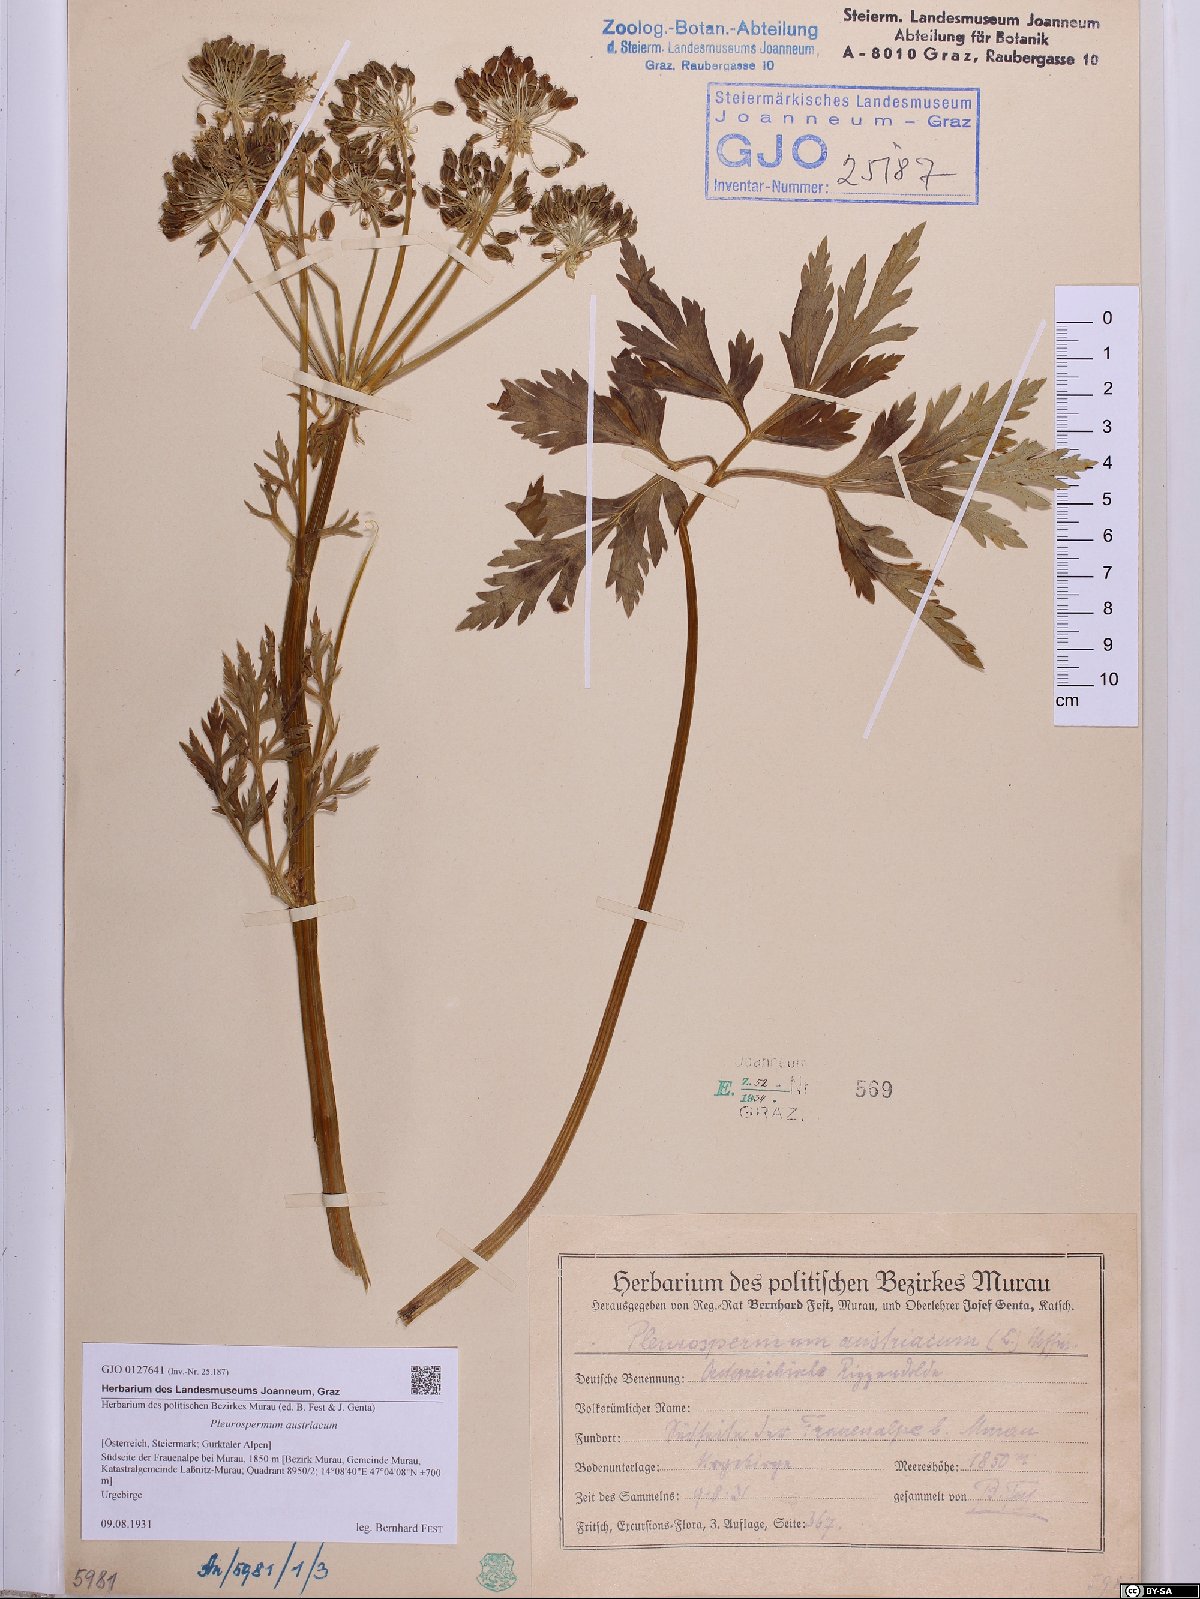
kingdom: Plantae
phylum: Tracheophyta
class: Magnoliopsida
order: Apiales
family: Apiaceae
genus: Pleurospermum
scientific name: Pleurospermum austriacum
